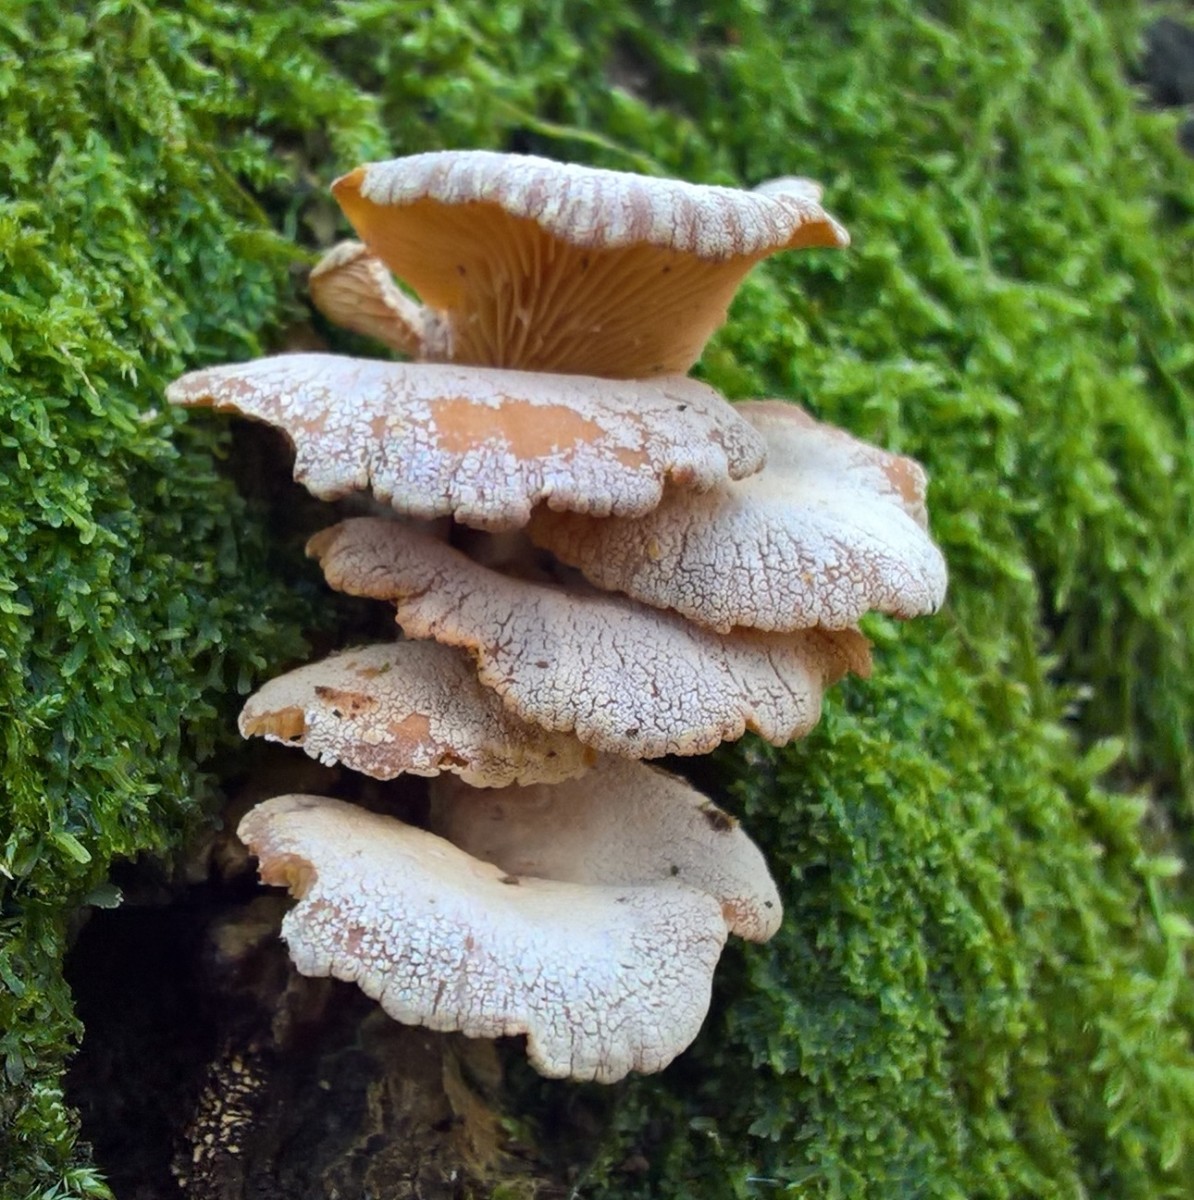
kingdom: Fungi
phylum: Basidiomycota
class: Agaricomycetes
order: Agaricales
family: Mycenaceae
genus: Panellus
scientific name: Panellus stipticus
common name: kliddet epaulethat
